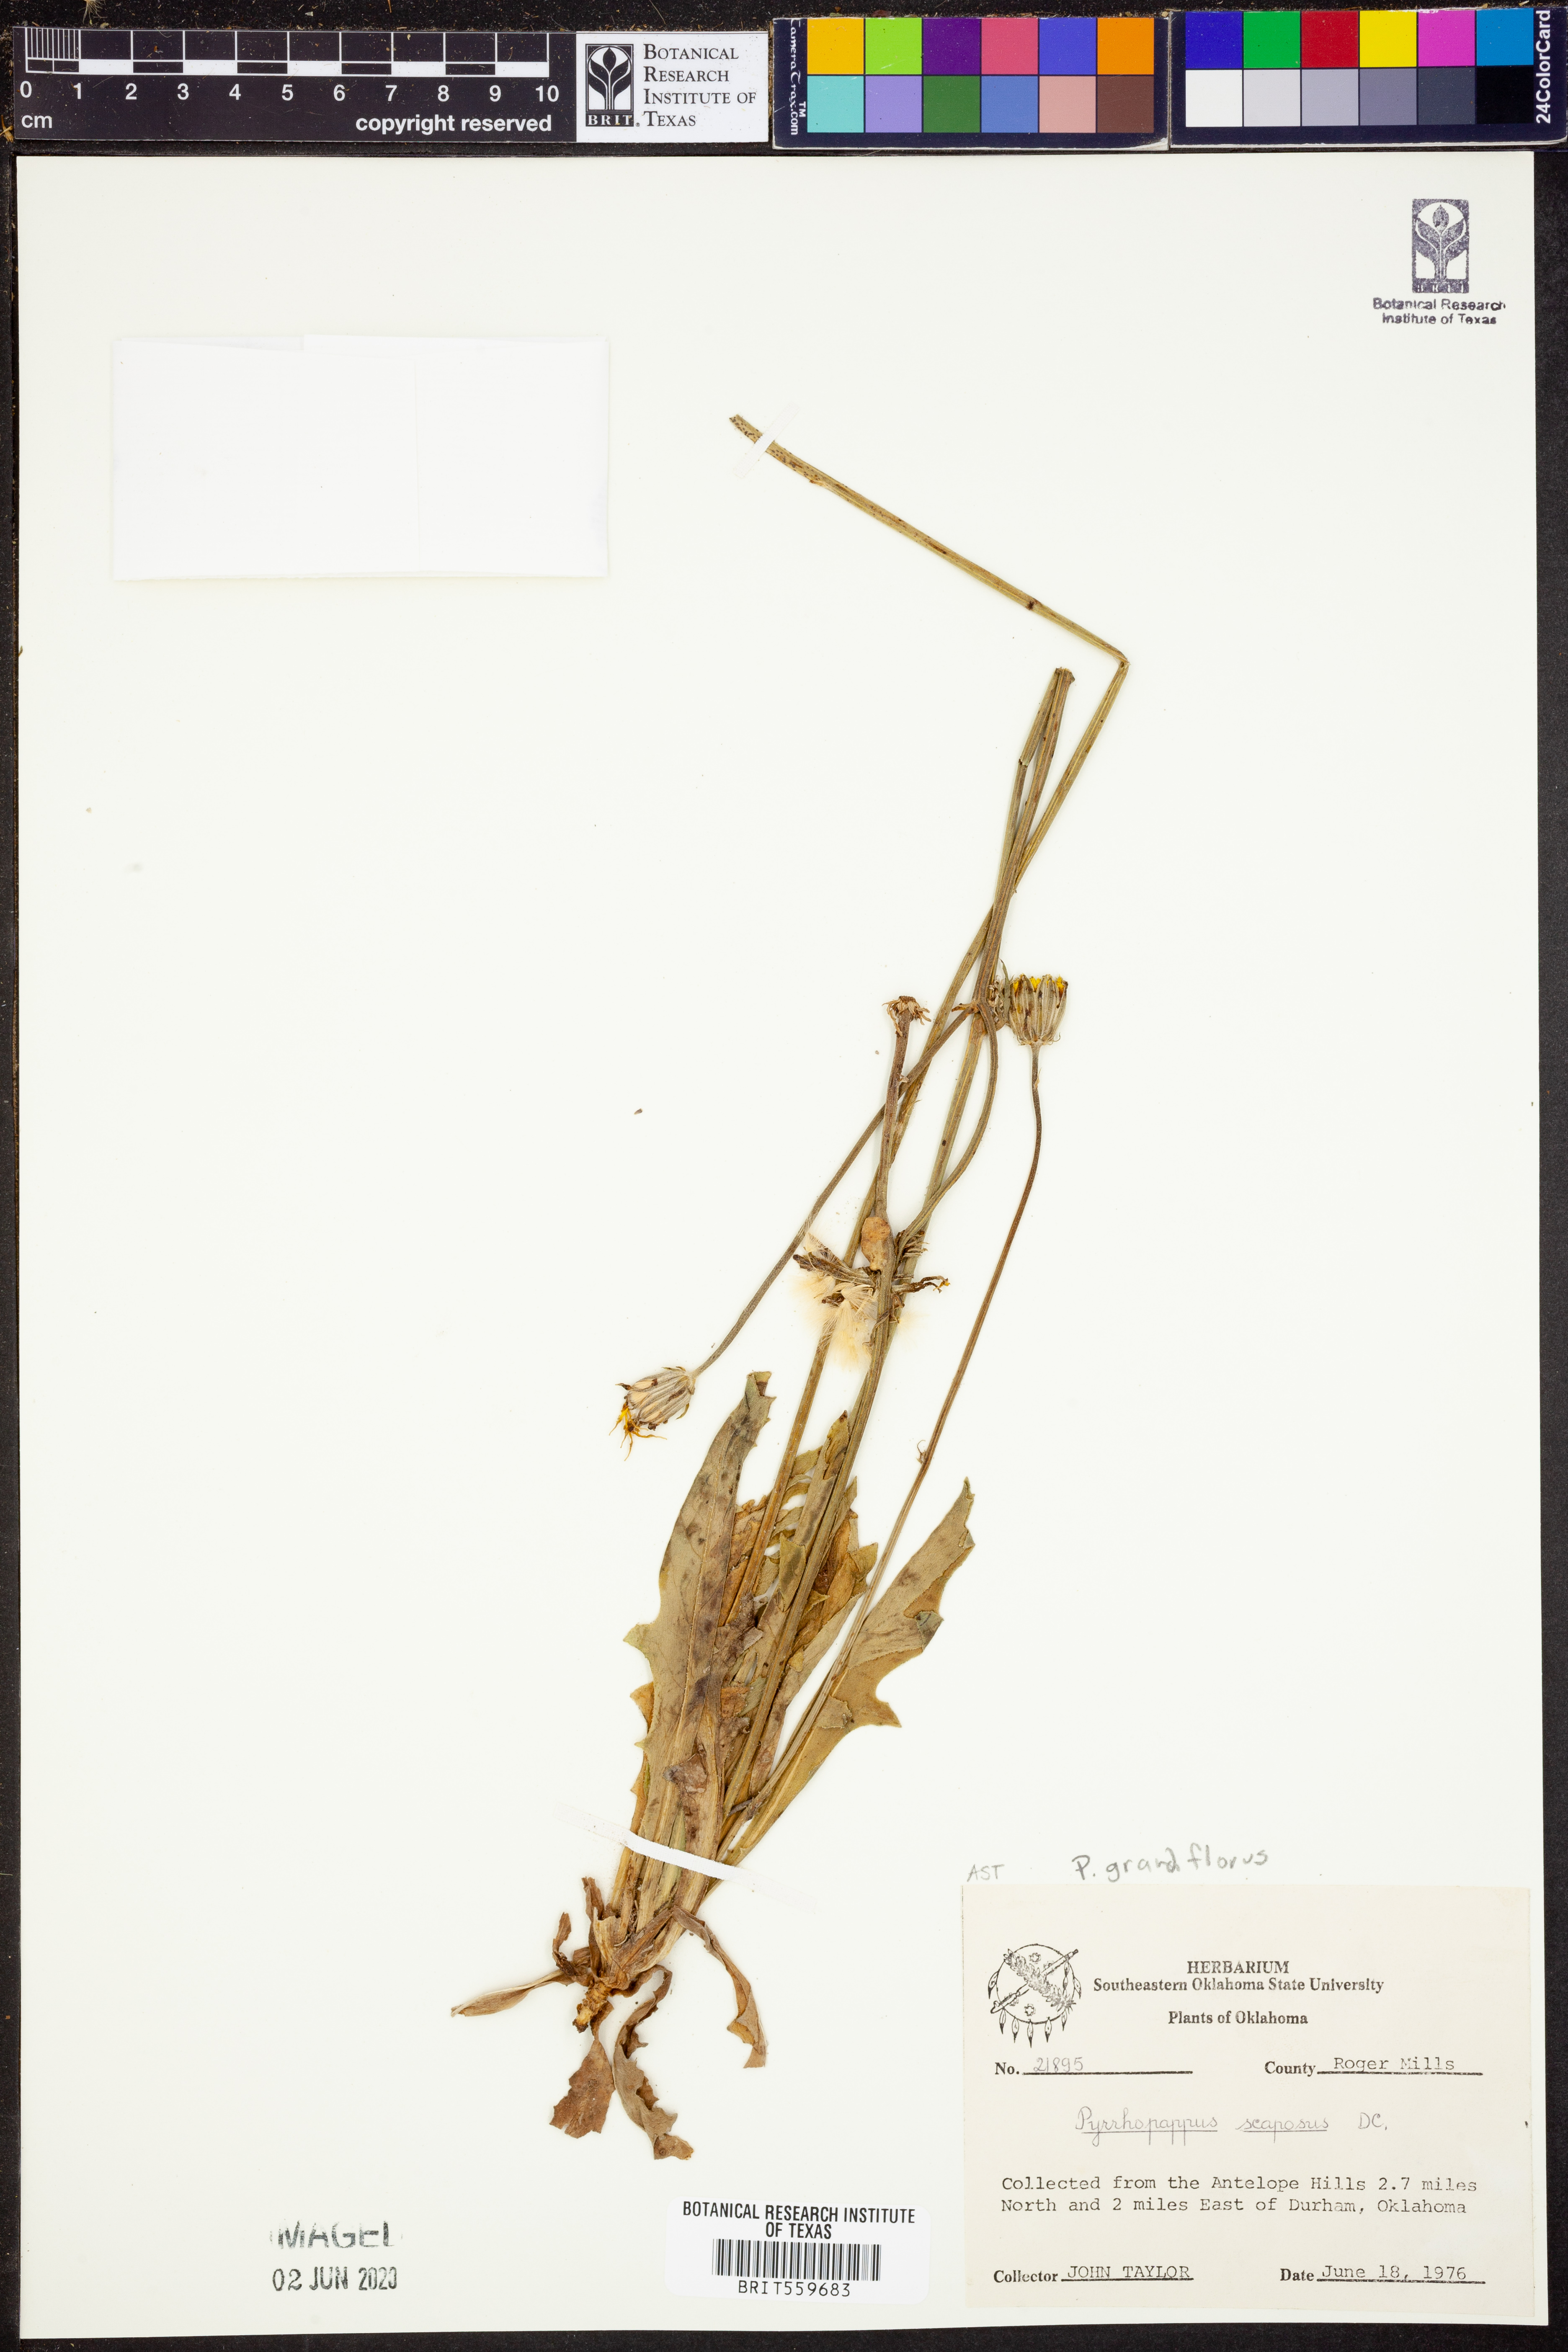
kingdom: Plantae
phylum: Tracheophyta
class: Magnoliopsida
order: Asterales
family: Asteraceae
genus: Pyrrhopappus
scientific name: Pyrrhopappus grandiflorus
